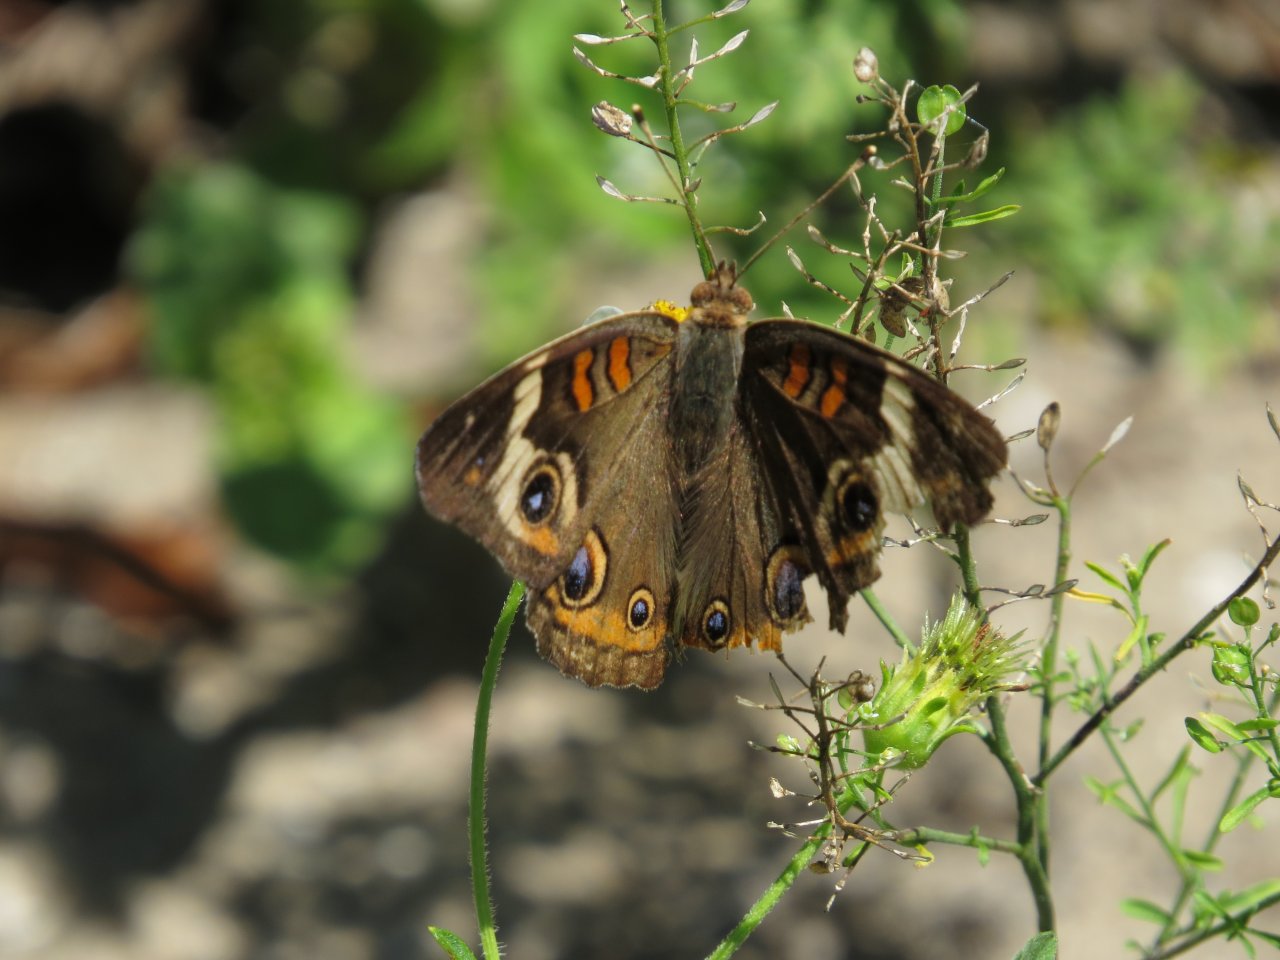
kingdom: Animalia
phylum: Arthropoda
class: Insecta
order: Lepidoptera
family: Nymphalidae
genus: Junonia
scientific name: Junonia coenia
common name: Common Buckeye
